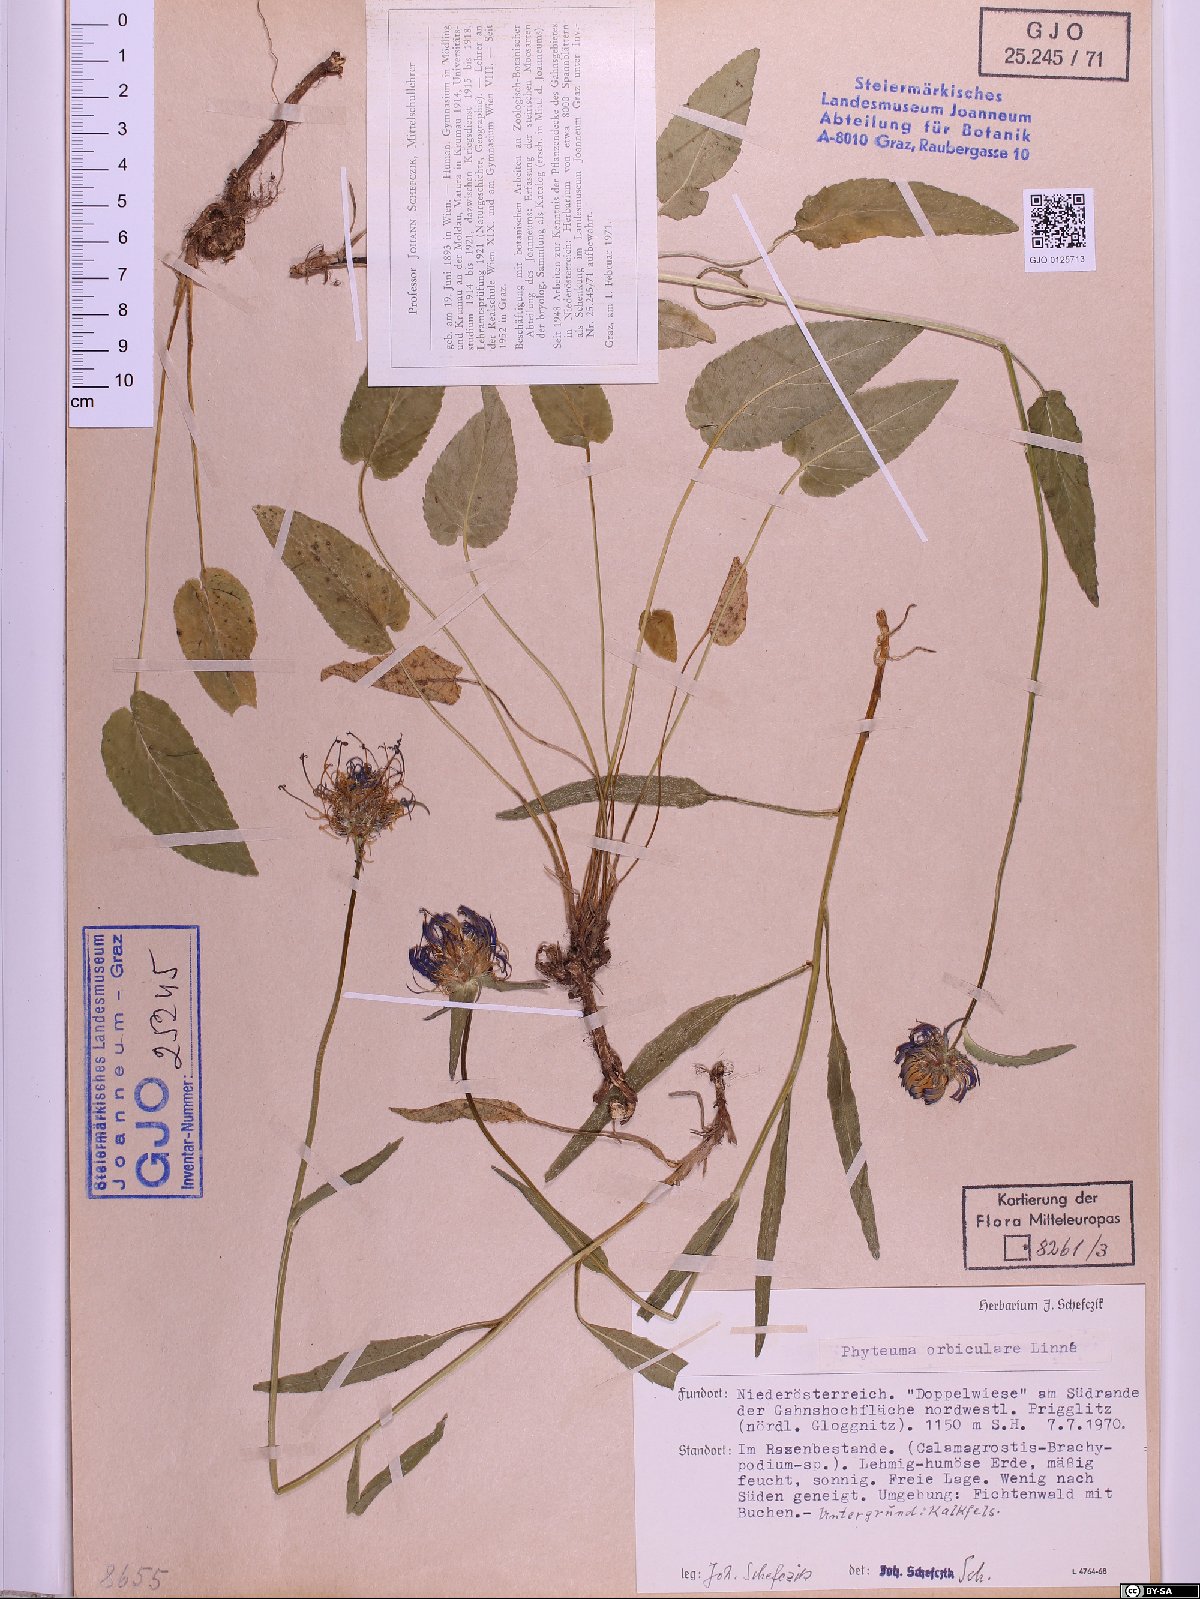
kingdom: Plantae
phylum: Tracheophyta
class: Magnoliopsida
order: Asterales
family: Campanulaceae
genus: Phyteuma
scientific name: Phyteuma orbiculare
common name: Round-headed rampion
